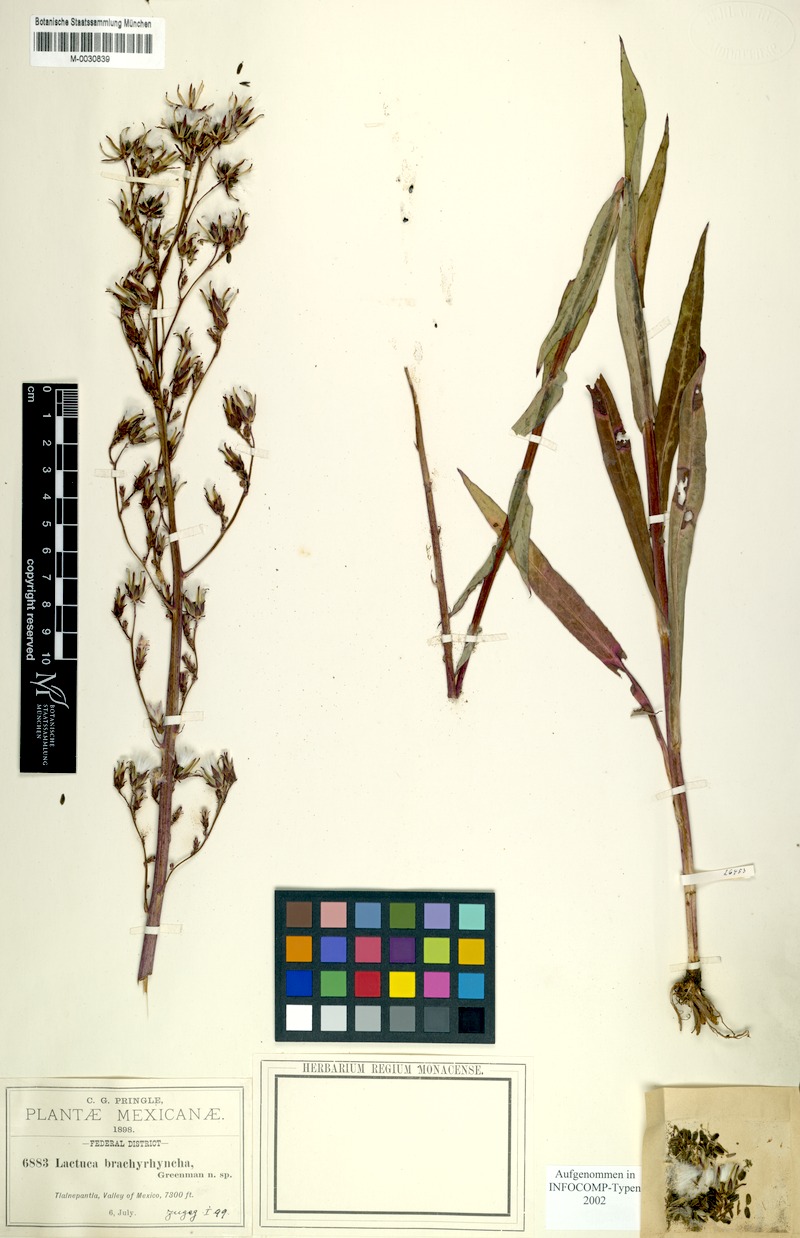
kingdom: Plantae
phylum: Tracheophyta
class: Magnoliopsida
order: Asterales
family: Asteraceae
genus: Lactuca
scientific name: Lactuca brachyrrhyncha
